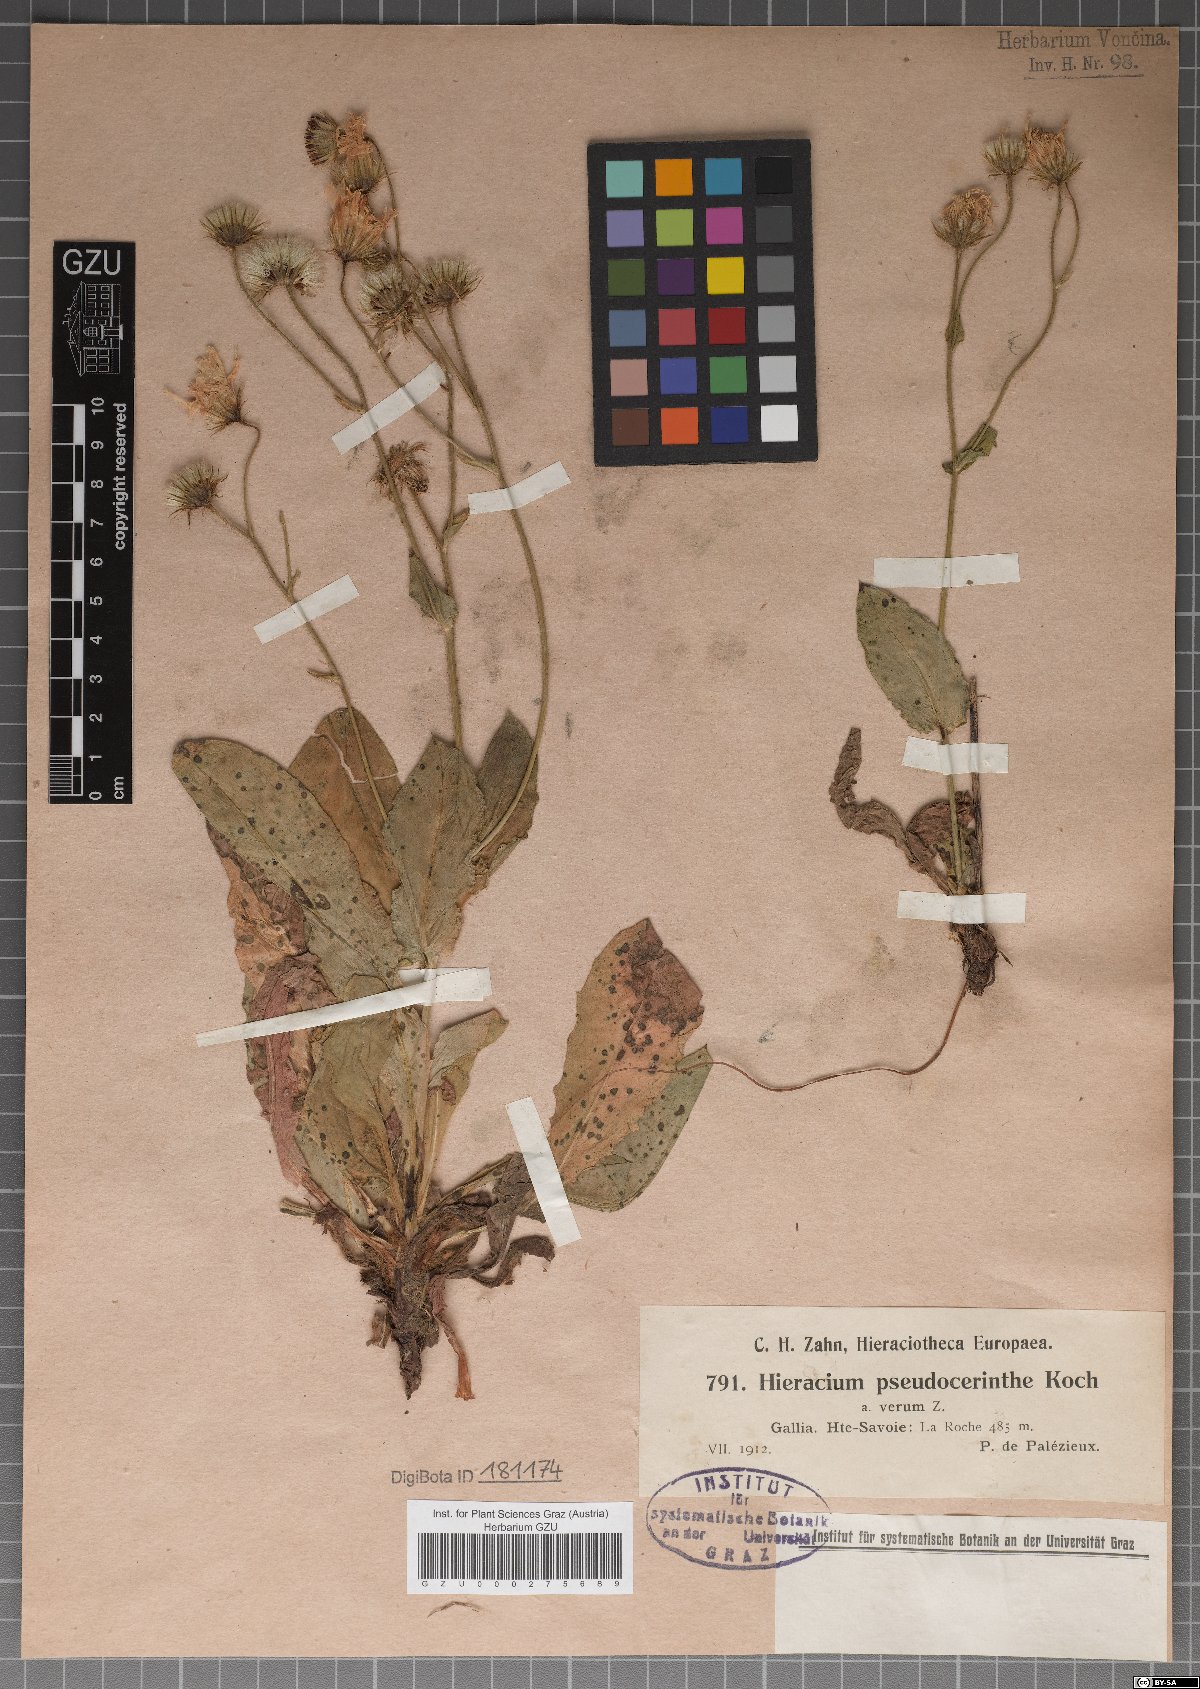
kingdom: Plantae
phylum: Tracheophyta
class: Magnoliopsida
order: Asterales
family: Asteraceae
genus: Hieracium
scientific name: Hieracium pseudocerinthe
